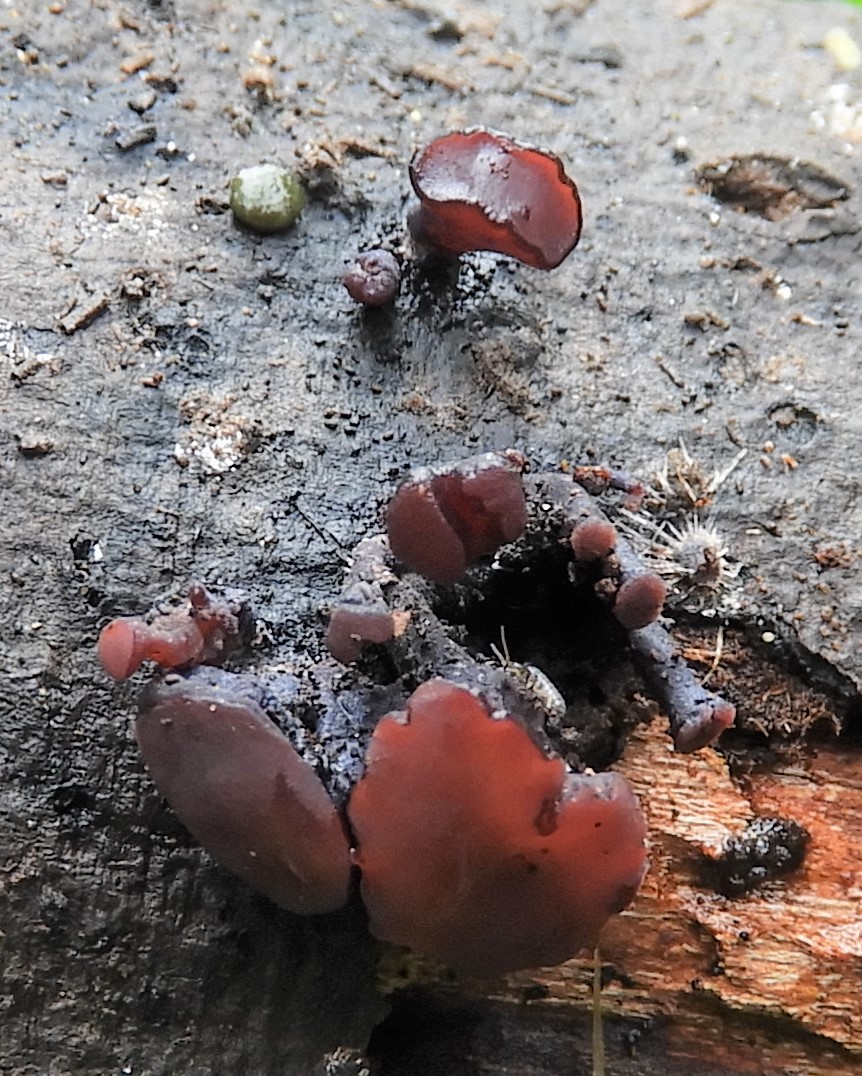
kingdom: Fungi
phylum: Ascomycota
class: Leotiomycetes
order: Helotiales
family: Gelatinodiscaceae
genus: Ascocoryne
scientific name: Ascocoryne
